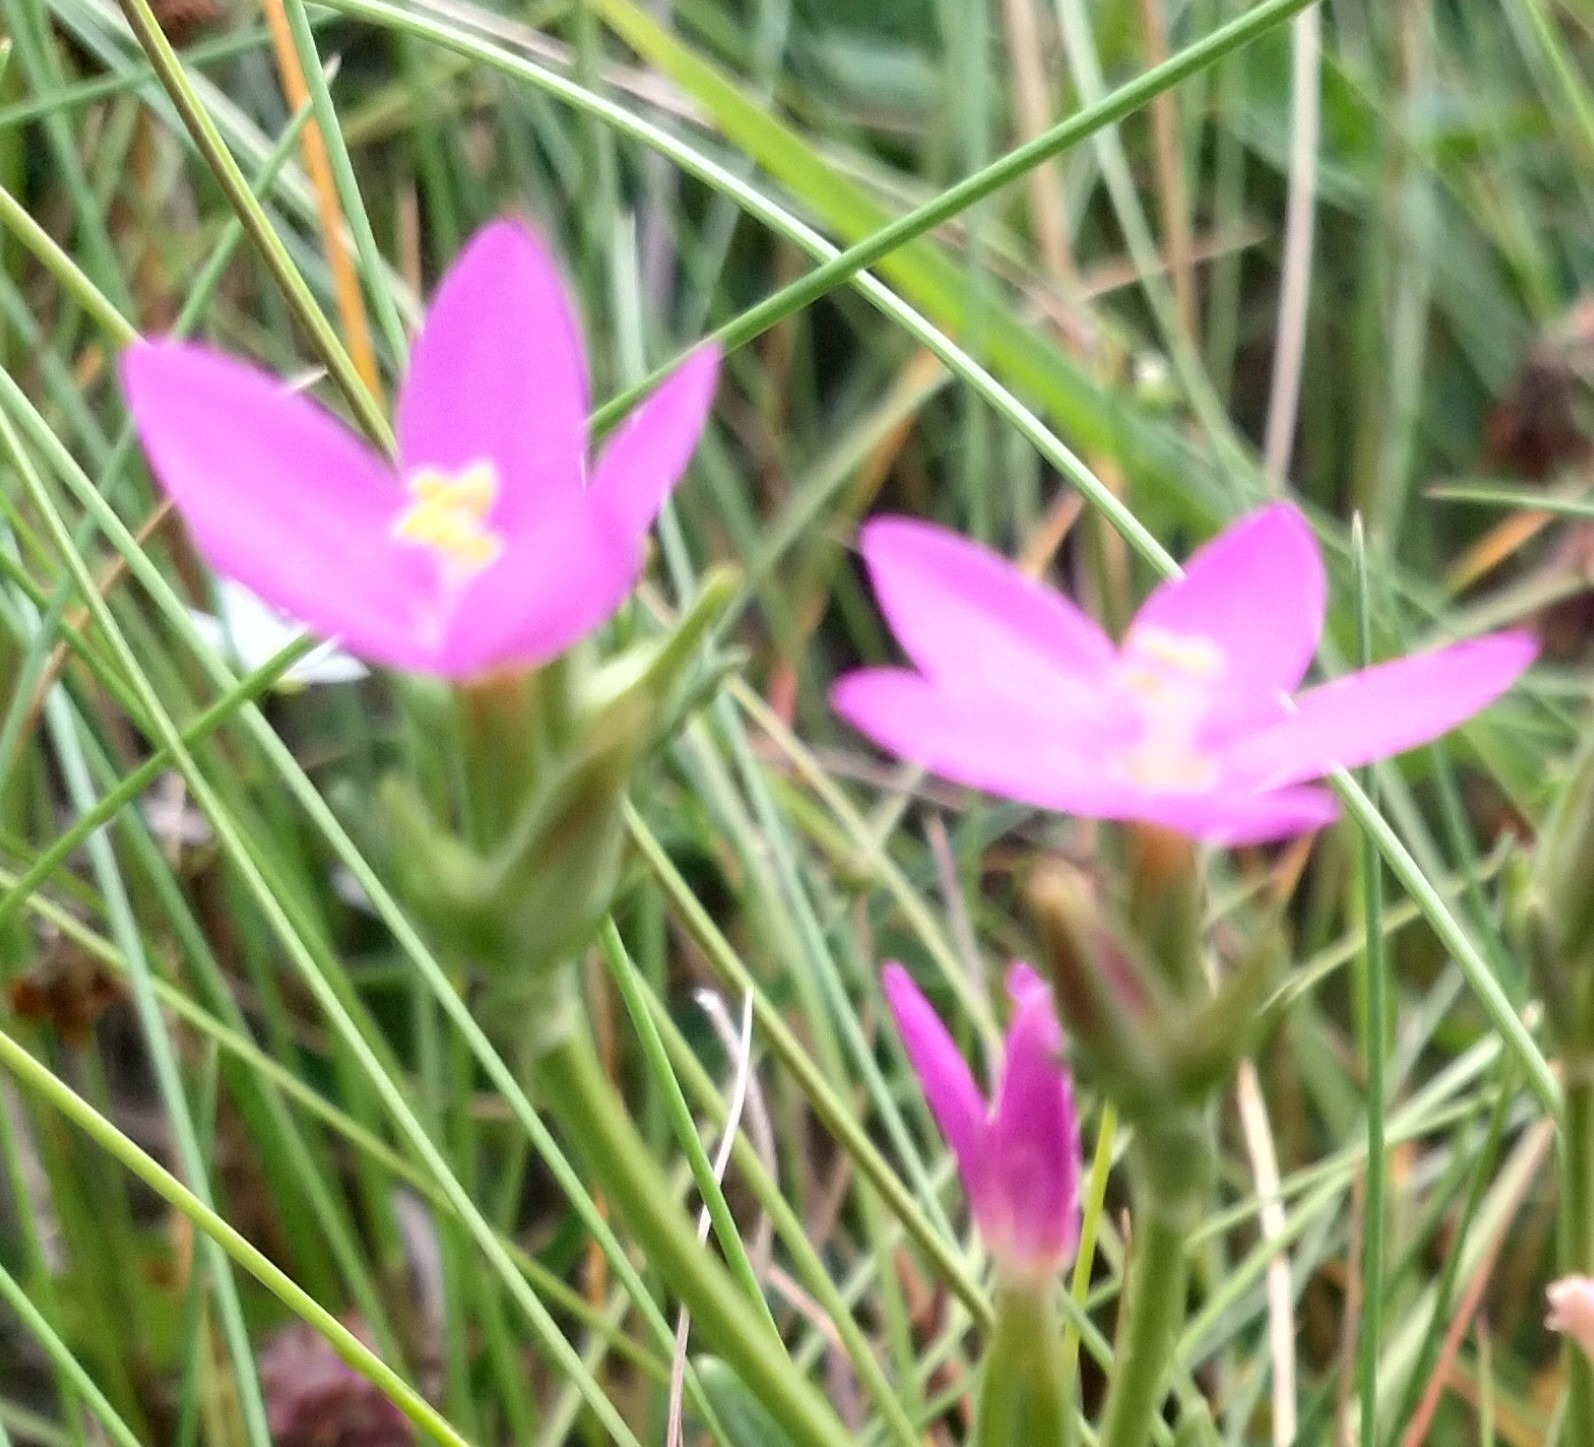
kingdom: Plantae
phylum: Tracheophyta
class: Magnoliopsida
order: Gentianales
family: Gentianaceae
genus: Centaurium
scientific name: Centaurium littorale
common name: Strand-tusindgylden
